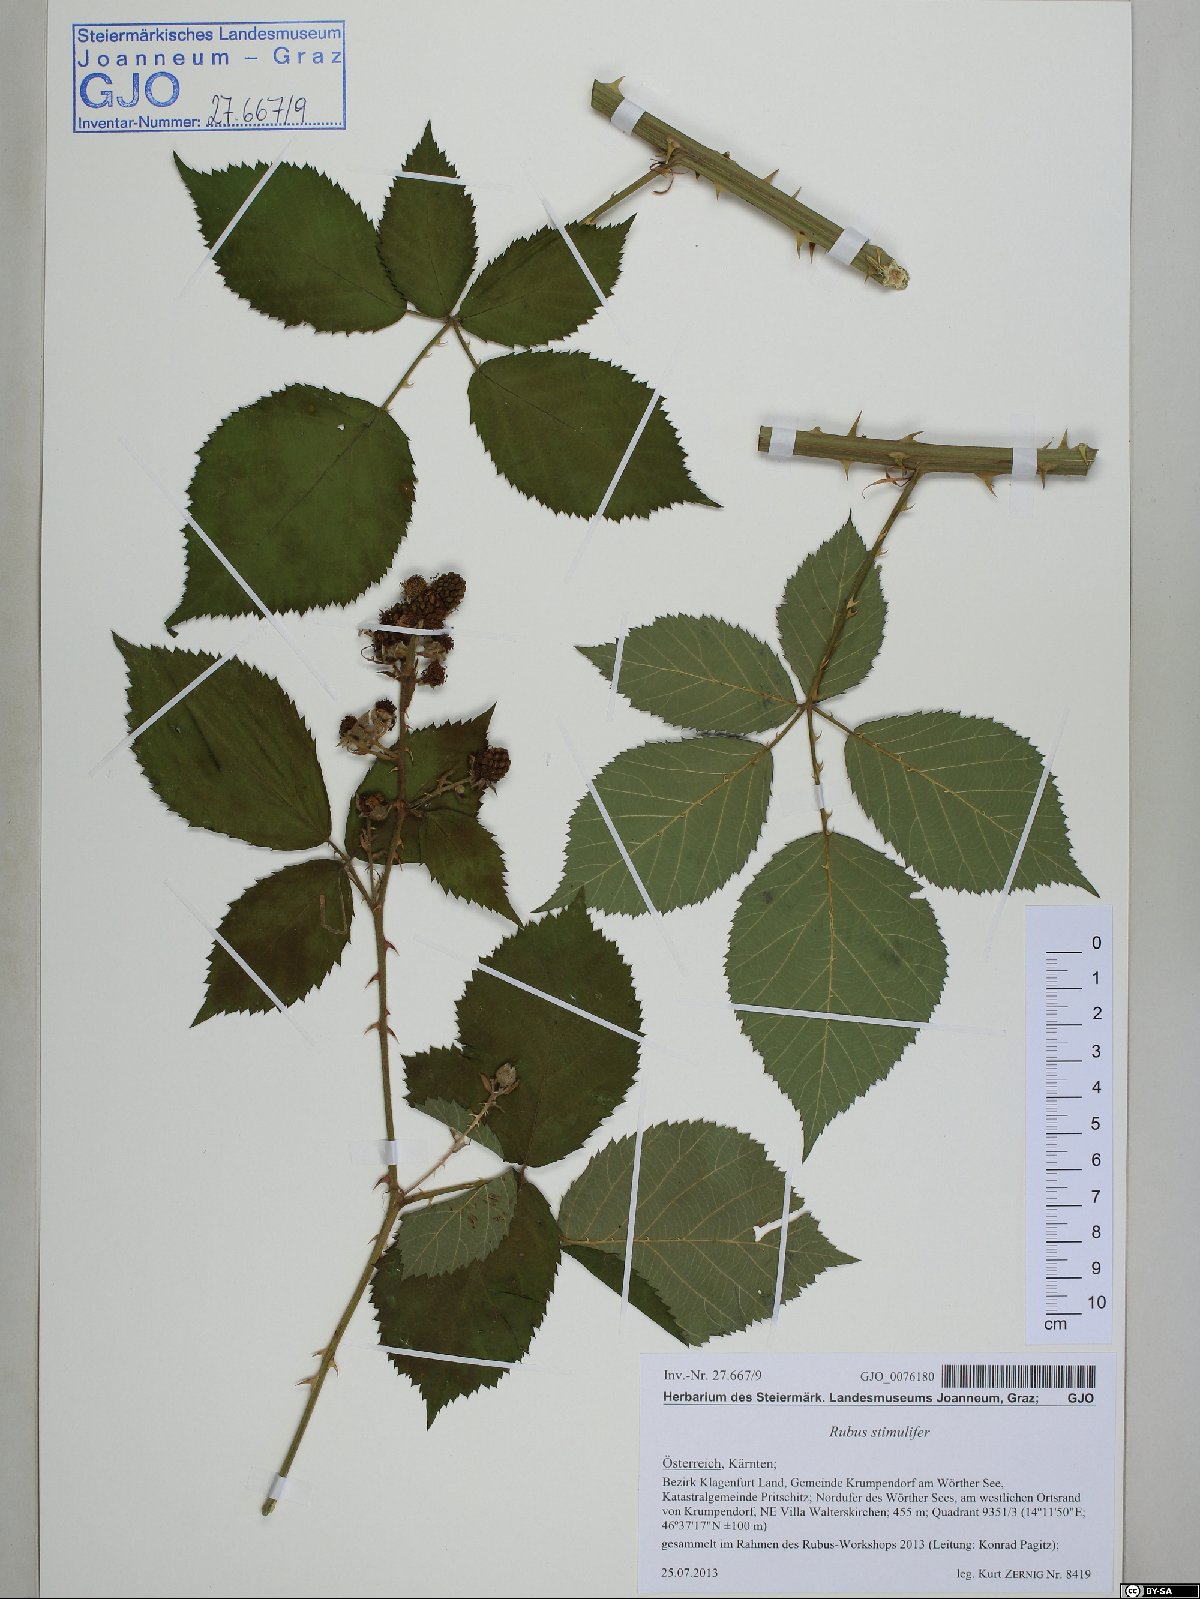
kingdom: Plantae
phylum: Tracheophyta
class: Magnoliopsida
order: Rosales
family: Rosaceae
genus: Rubus
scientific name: Rubus stimulifer
